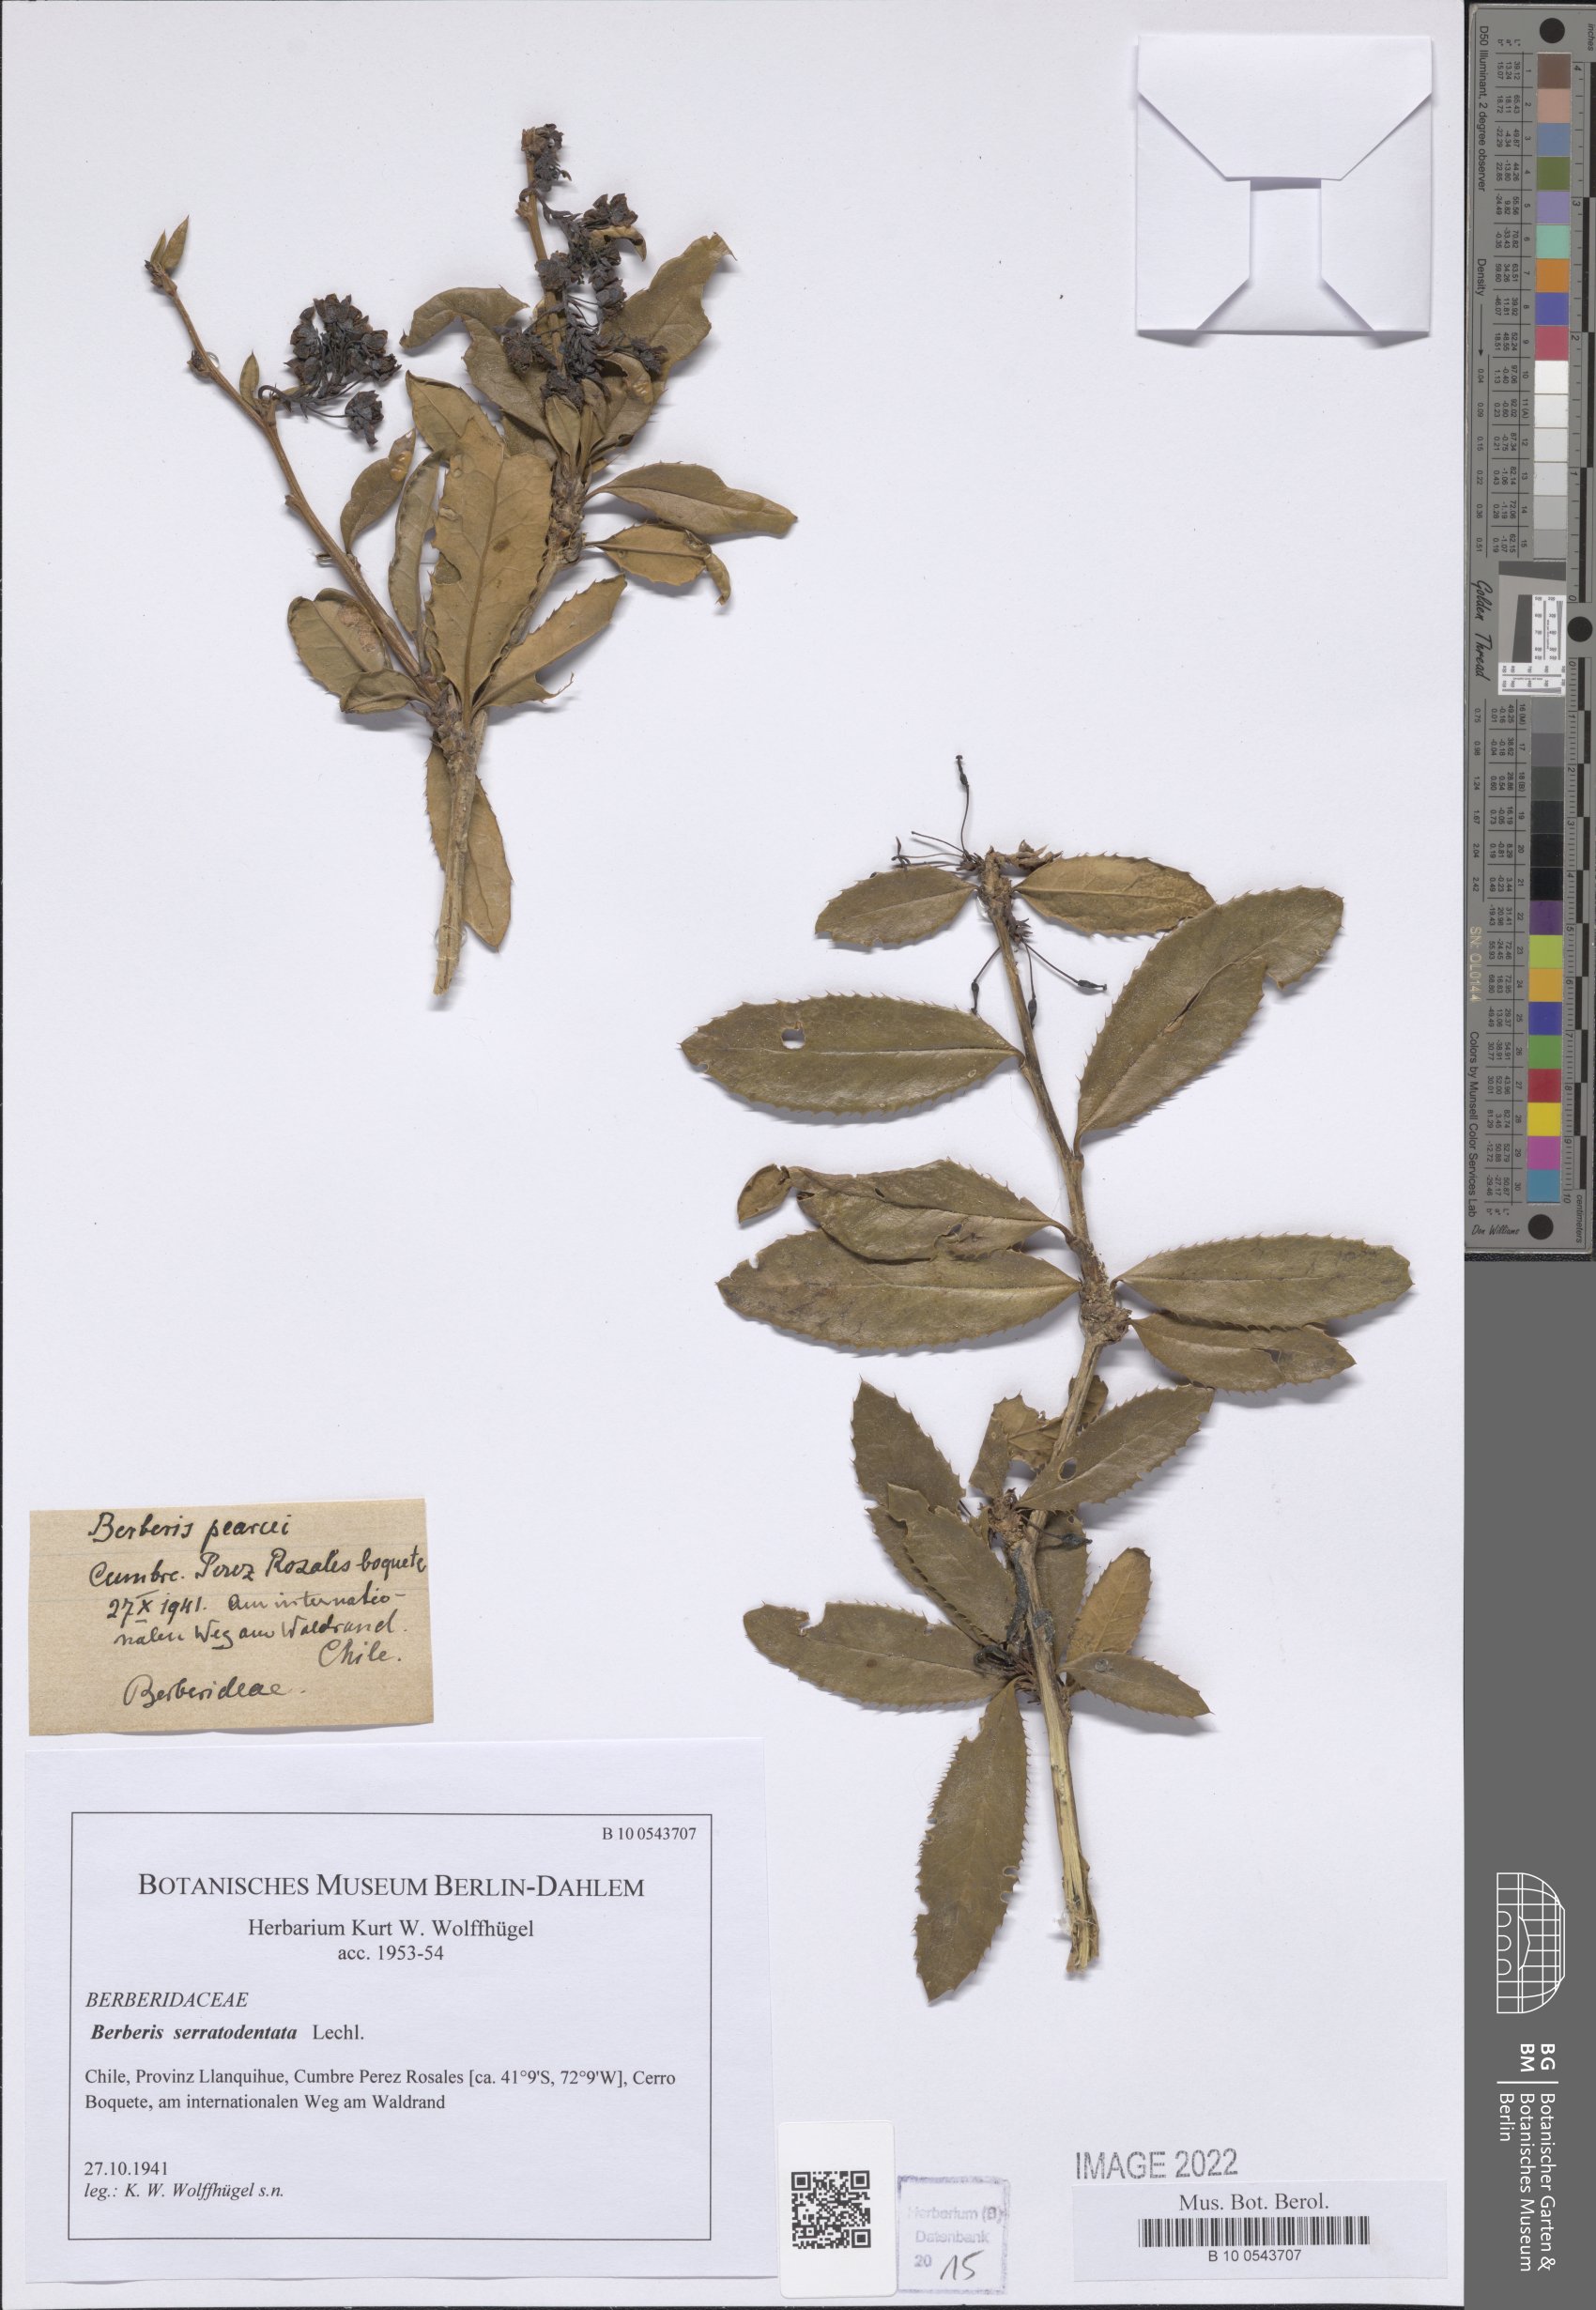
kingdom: Plantae
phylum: Tracheophyta
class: Magnoliopsida
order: Ranunculales
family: Berberidaceae
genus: Berberis
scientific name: Berberis serratodentata
